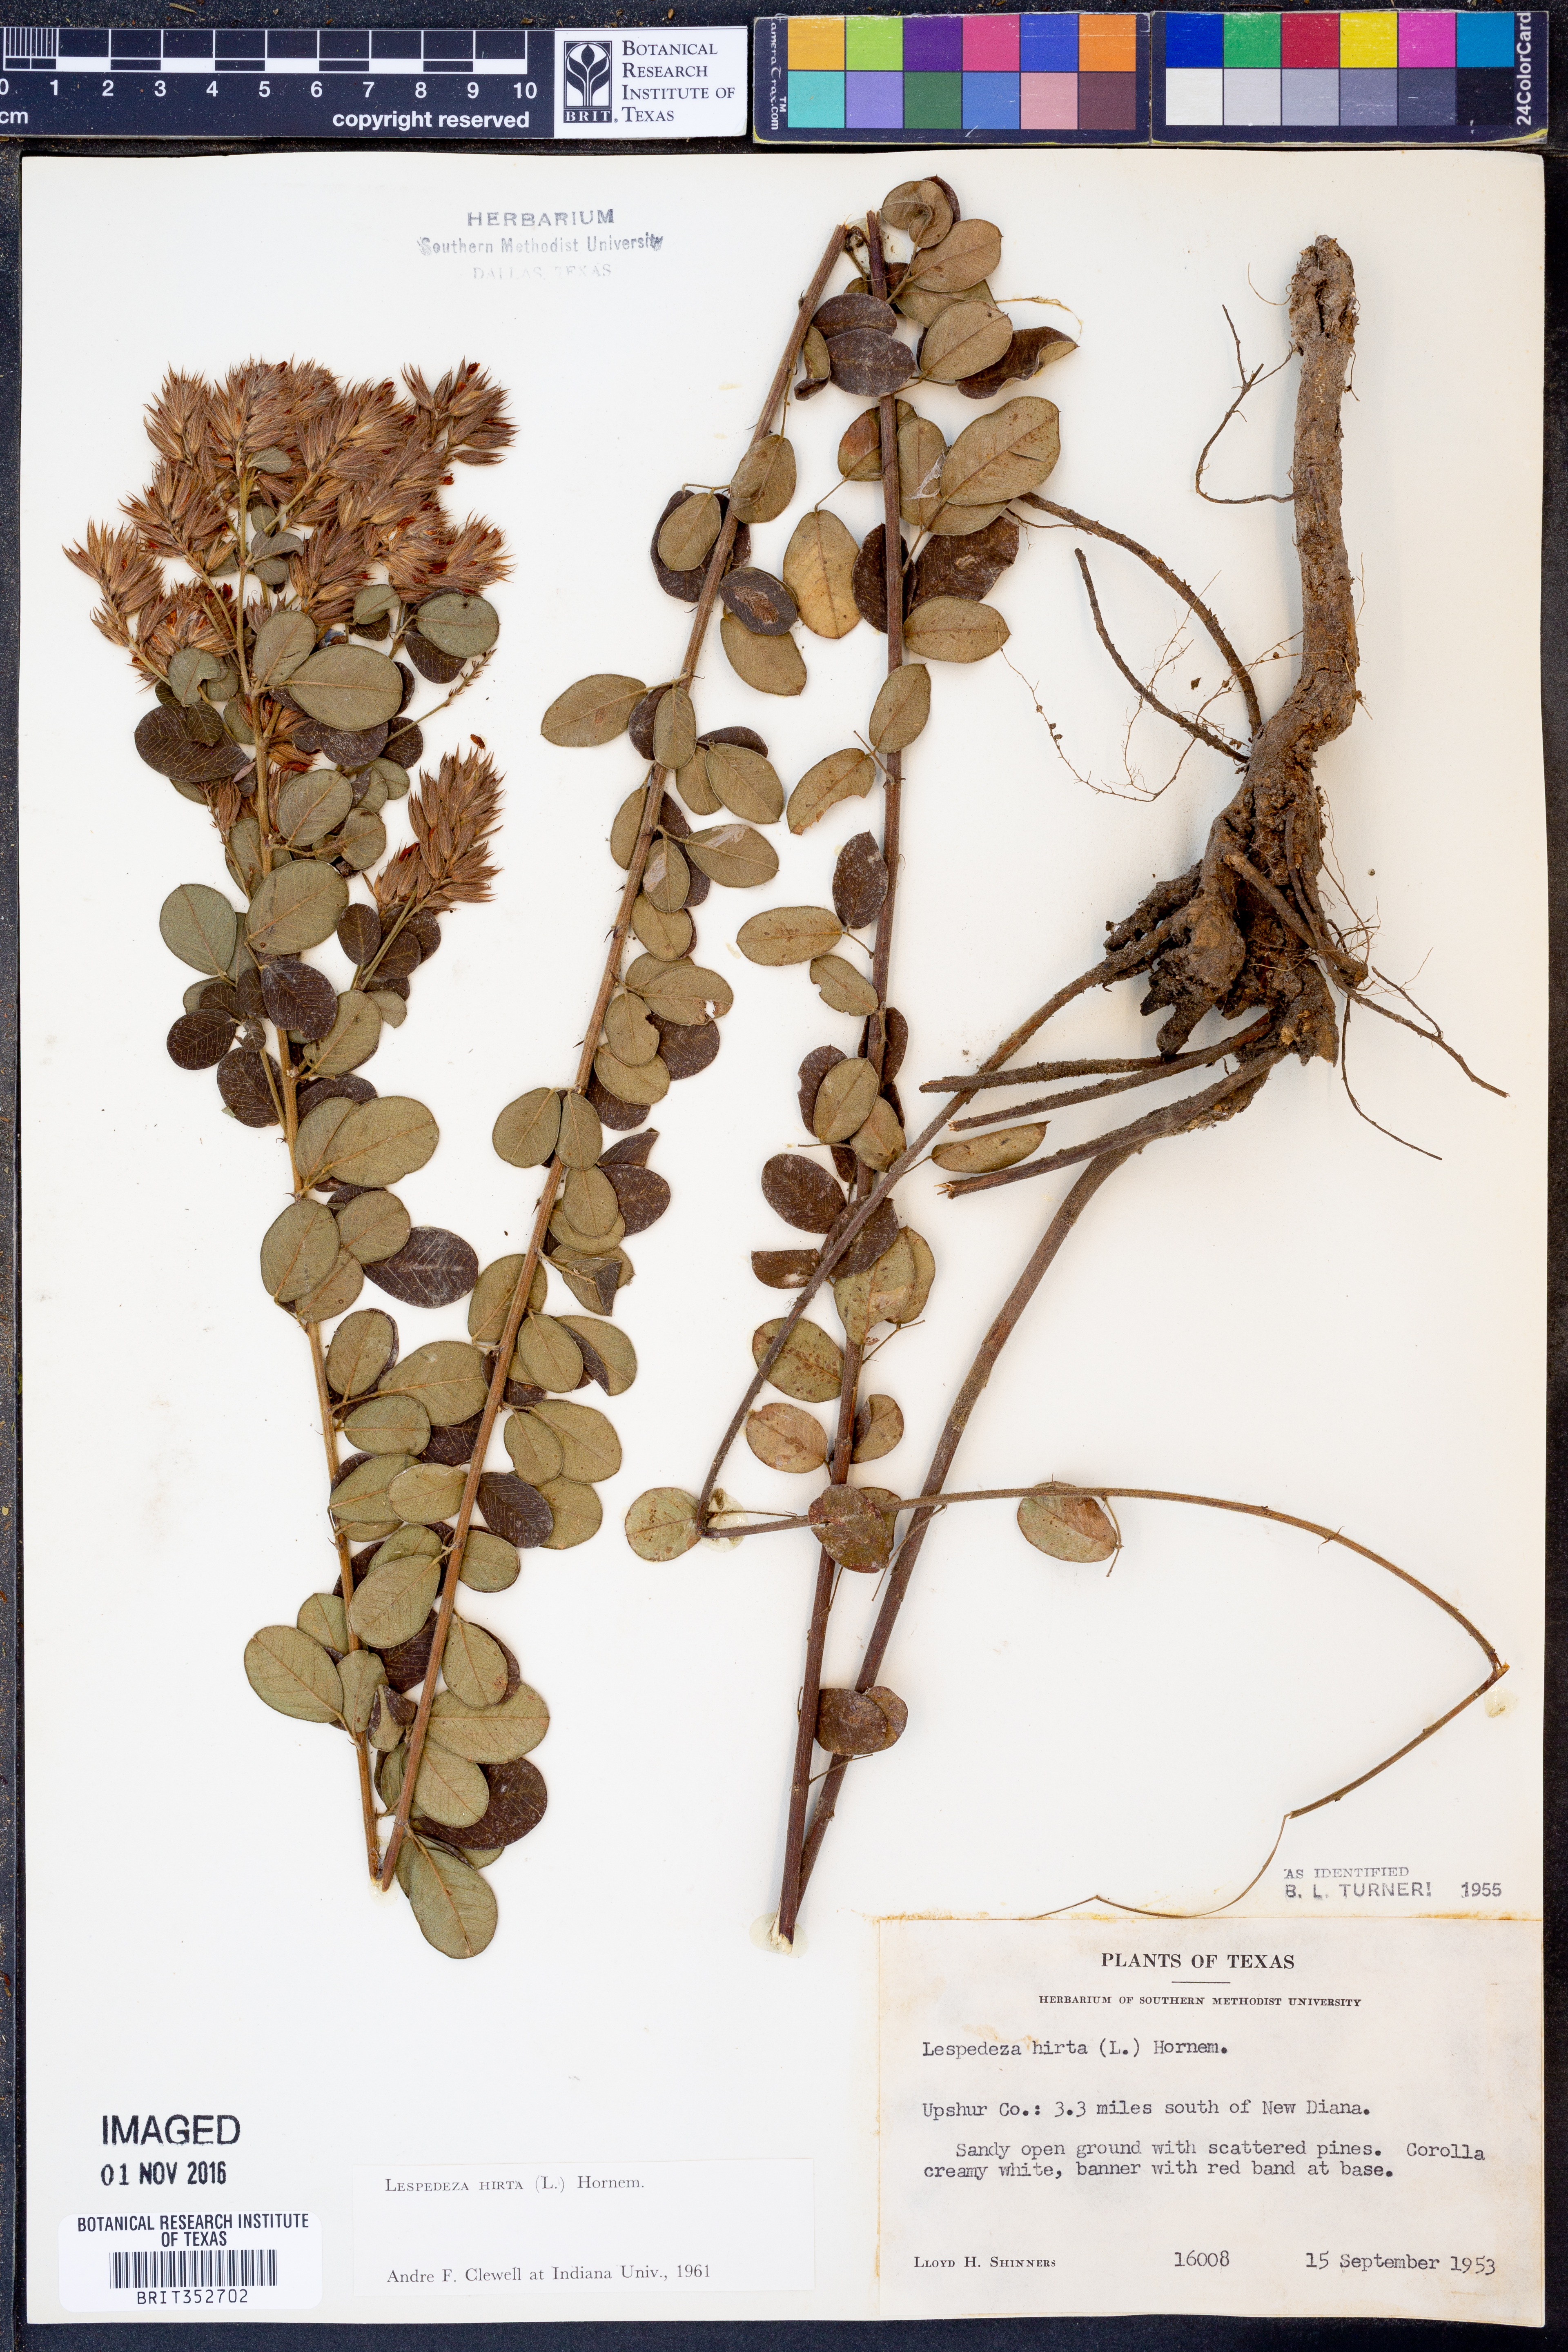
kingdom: Plantae
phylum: Tracheophyta
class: Magnoliopsida
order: Fabales
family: Fabaceae
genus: Lespedeza
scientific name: Lespedeza hirta
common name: Hairy lespedeza
